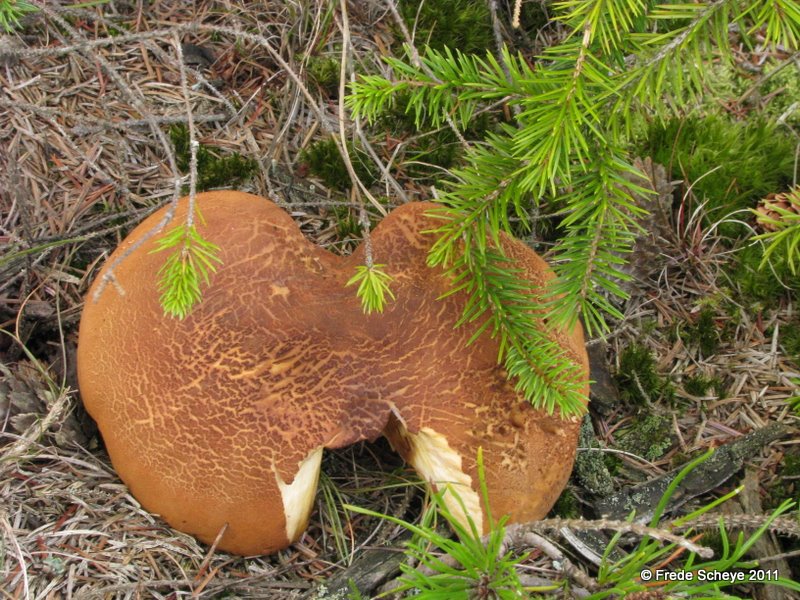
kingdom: Fungi
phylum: Basidiomycota
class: Agaricomycetes
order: Boletales
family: Tapinellaceae
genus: Tapinella
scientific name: Tapinella atrotomentosa
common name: sortfiltet viftesvamp
